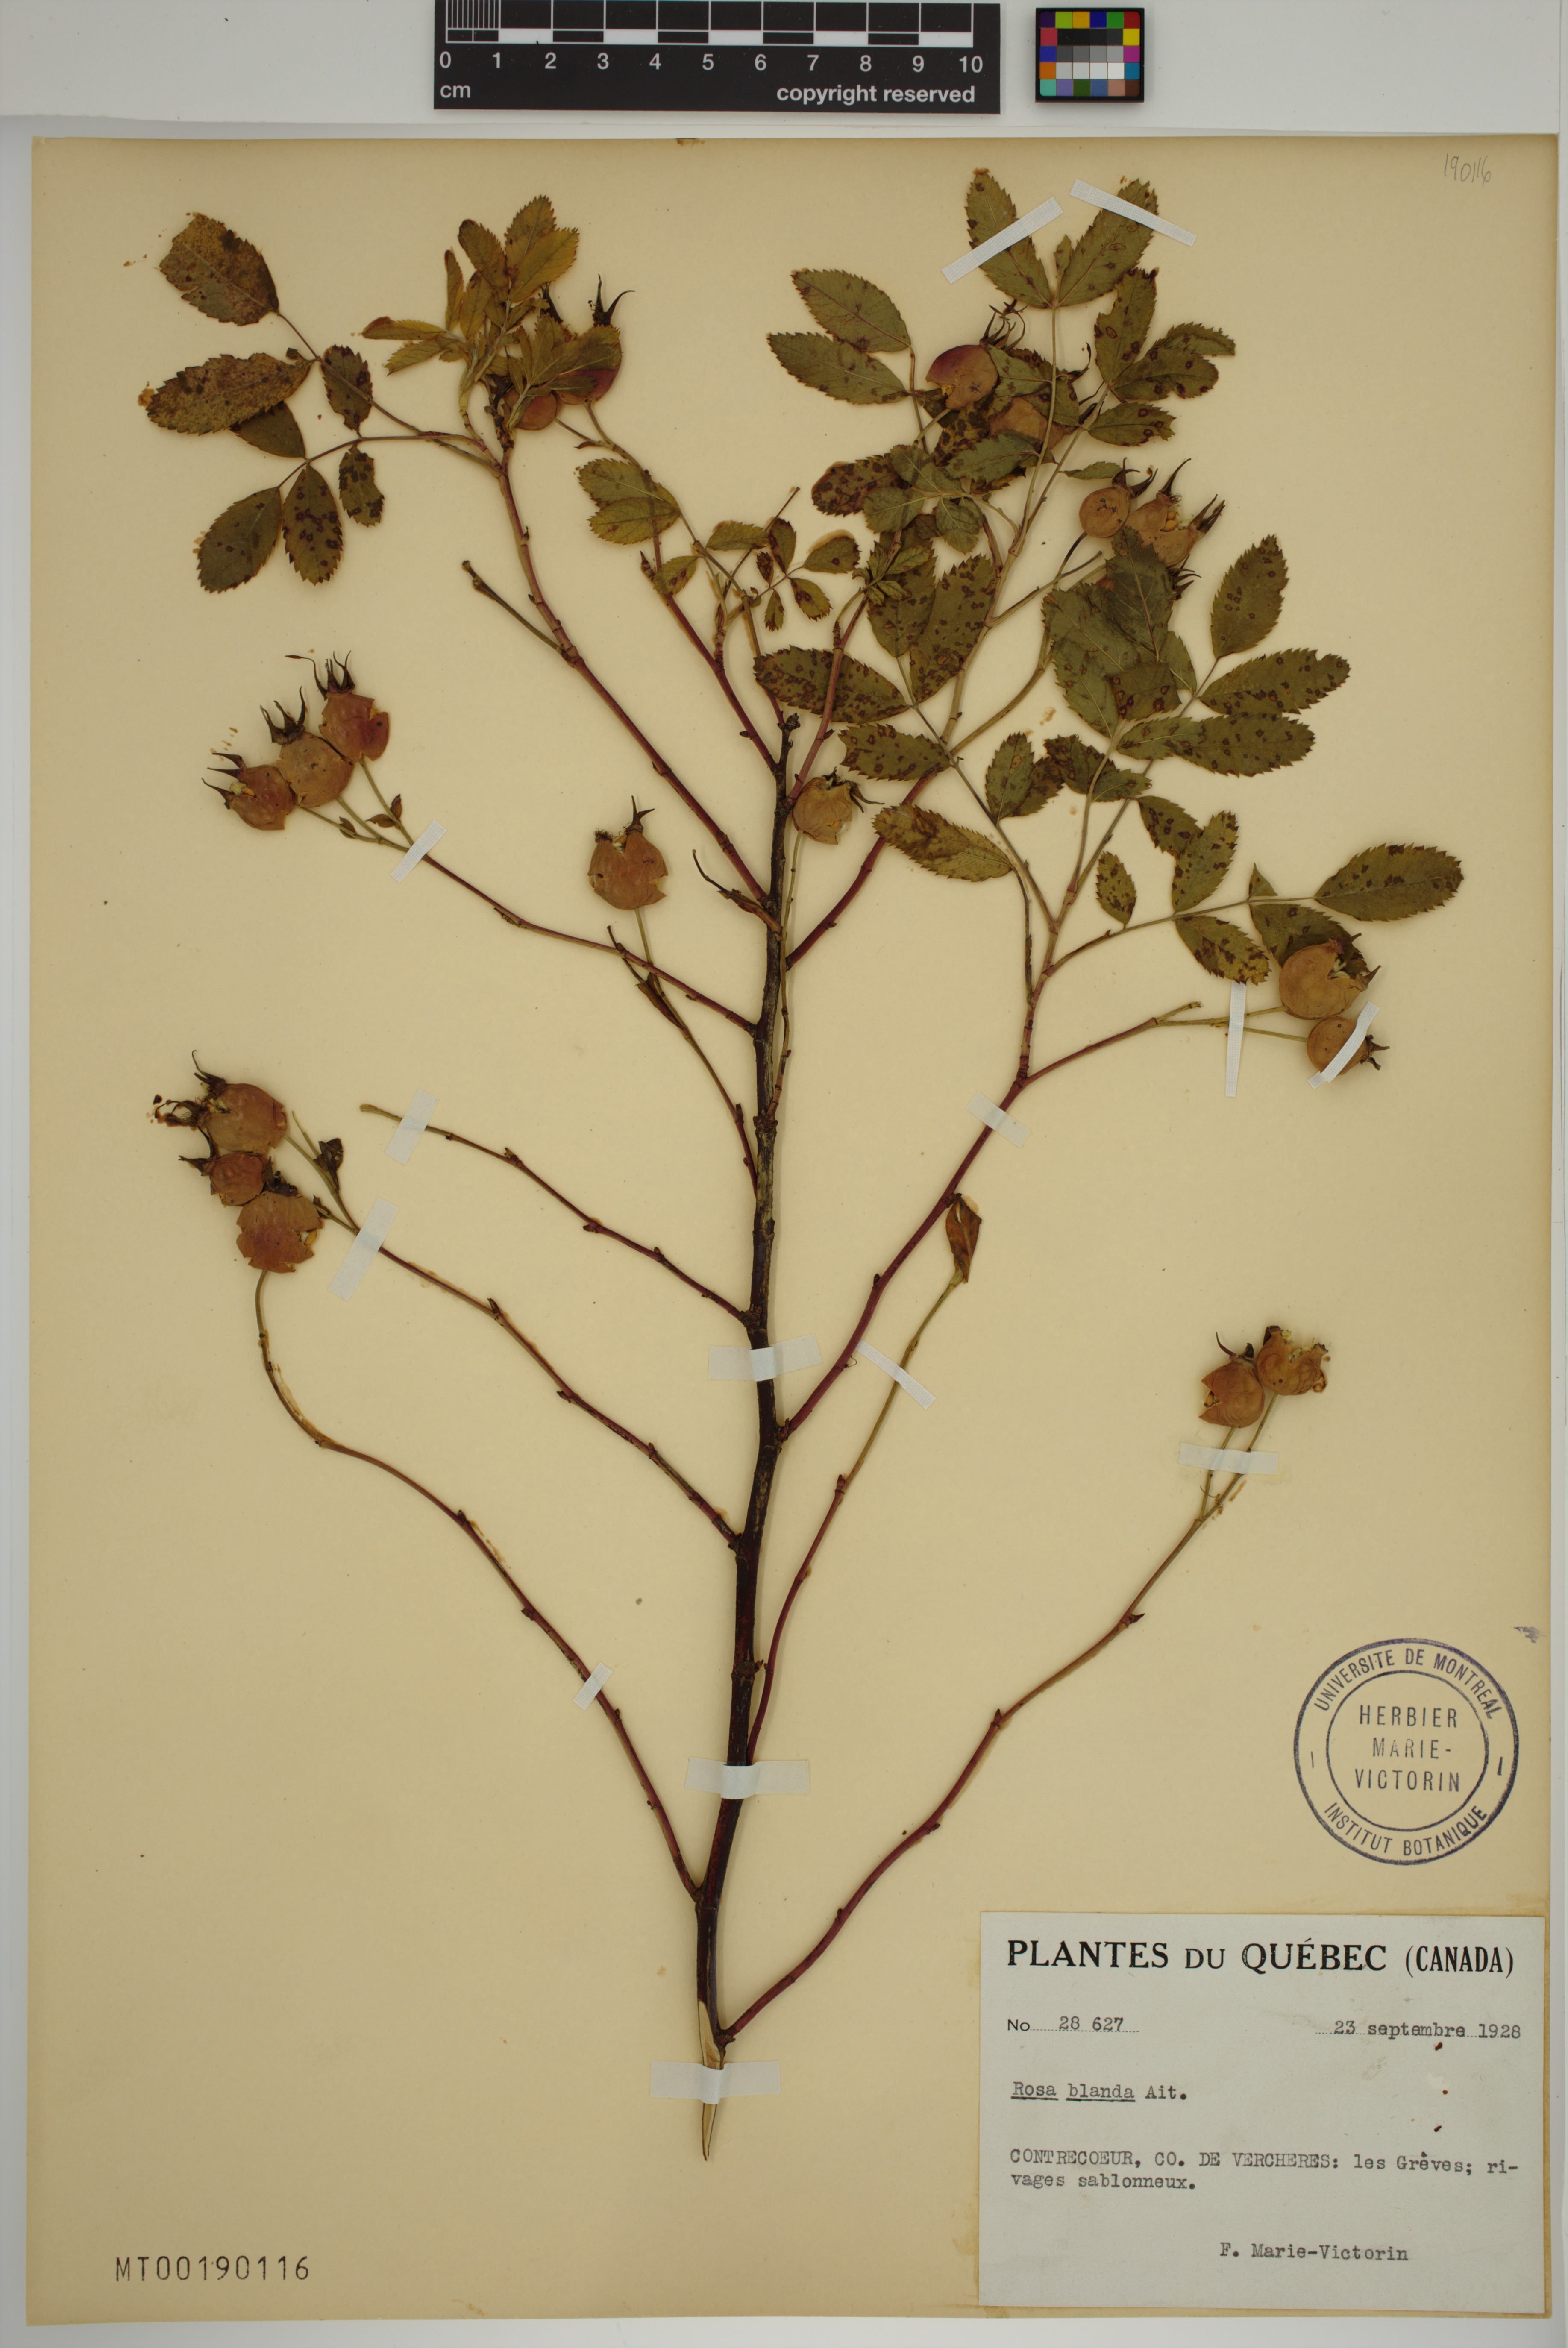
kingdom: Plantae
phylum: Tracheophyta
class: Magnoliopsida
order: Rosales
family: Rosaceae
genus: Rosa
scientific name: Rosa blanda
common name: Smooth rose
